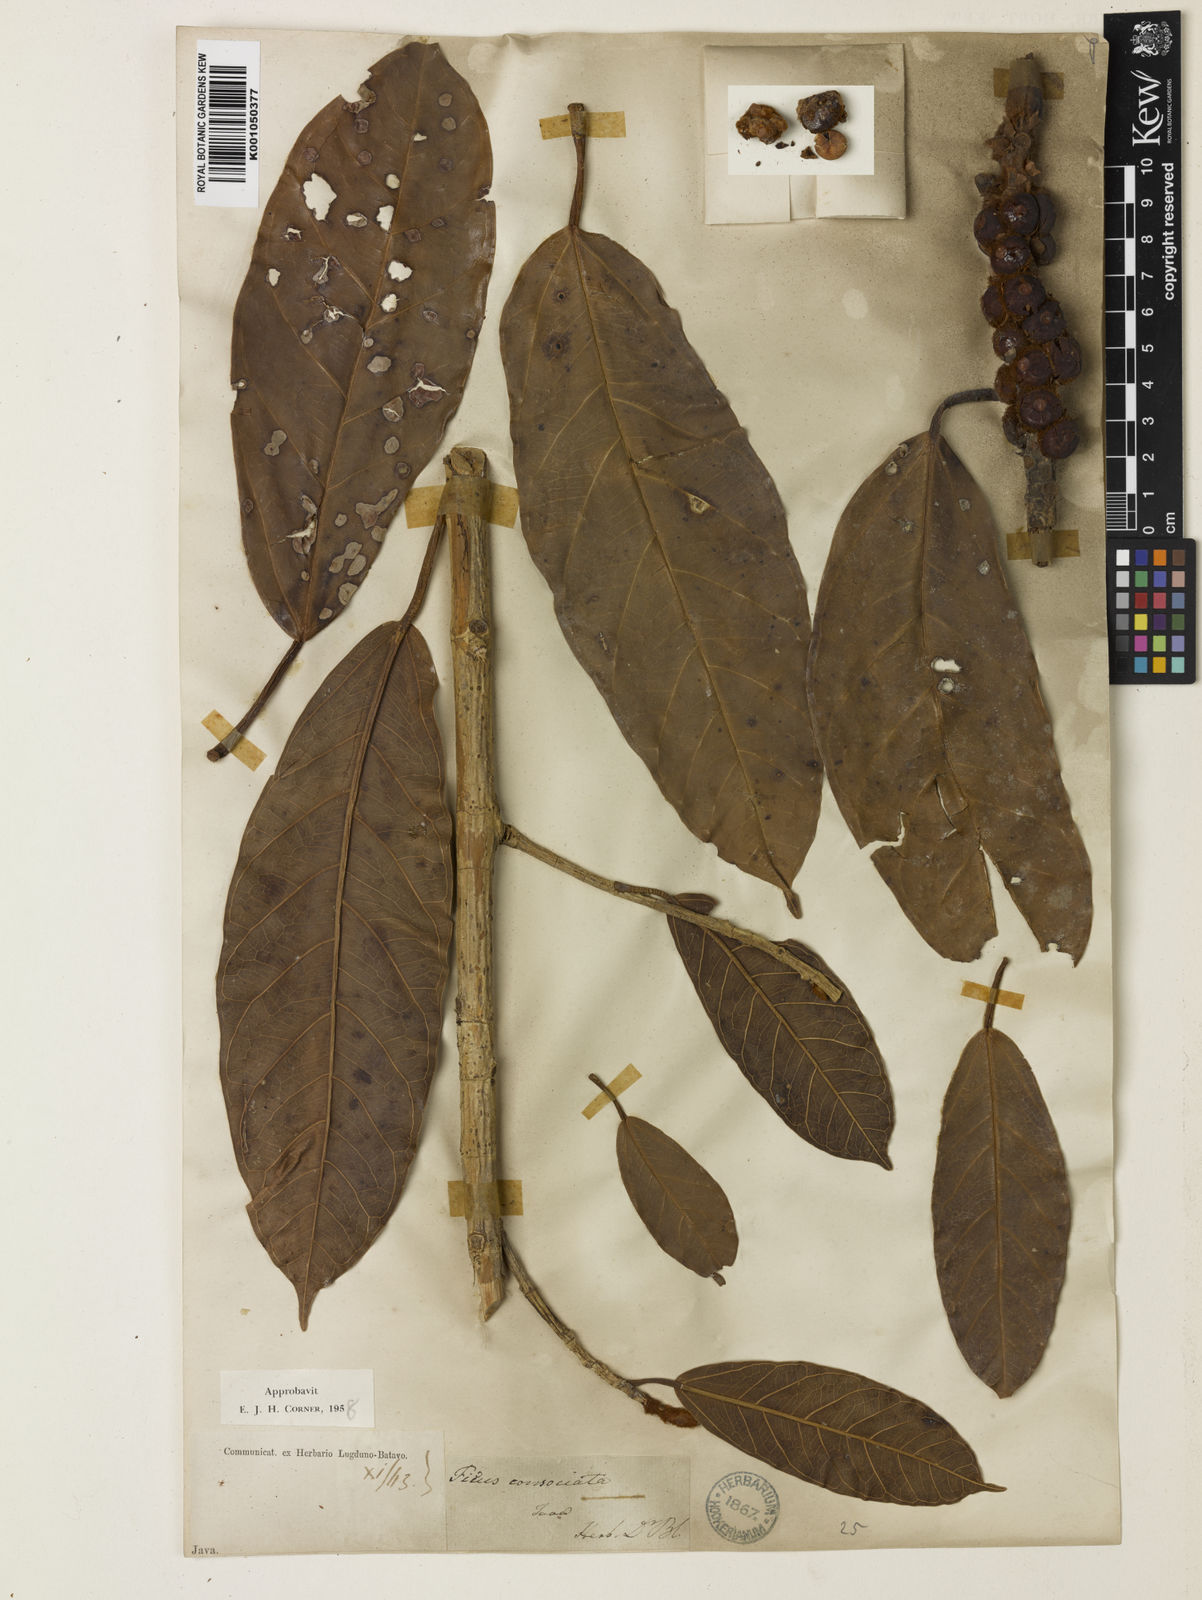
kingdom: Plantae
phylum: Tracheophyta
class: Magnoliopsida
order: Rosales
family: Moraceae
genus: Ficus
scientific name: Ficus consociata
